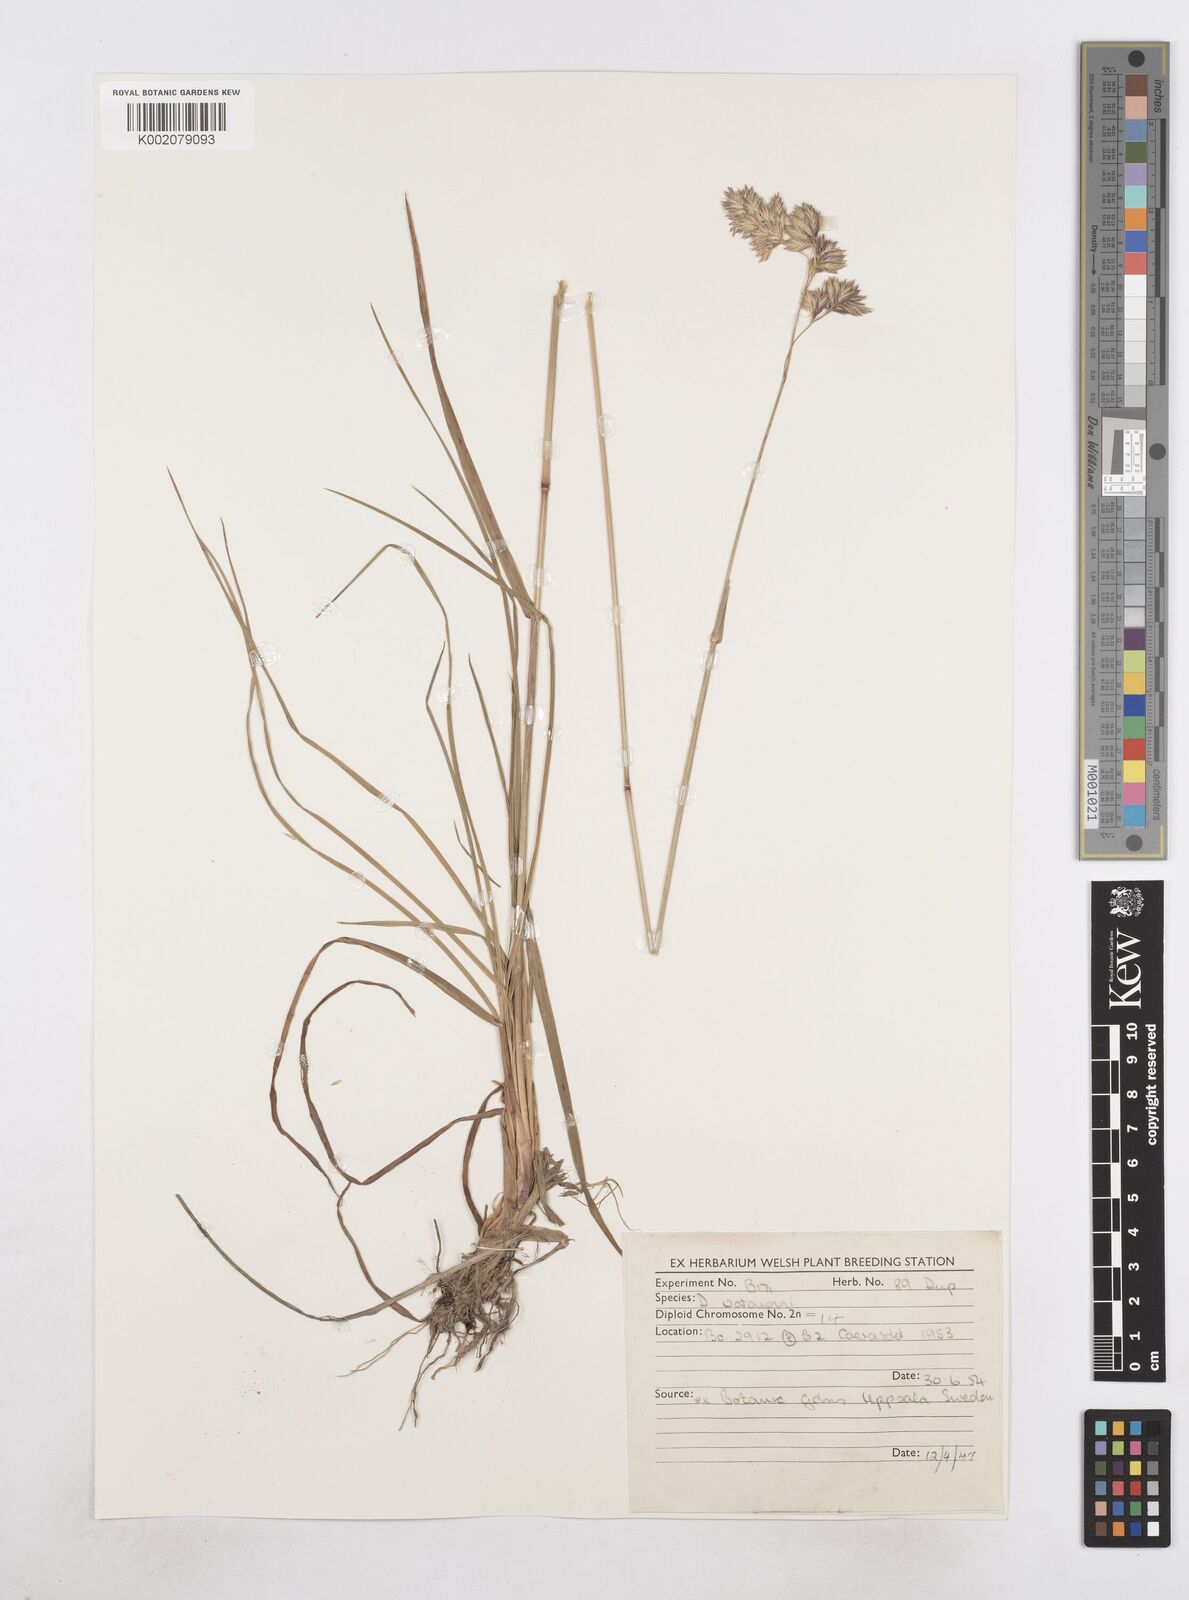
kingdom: Plantae
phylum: Tracheophyta
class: Liliopsida
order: Poales
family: Poaceae
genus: Dactylis
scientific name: Dactylis glomerata
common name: Orchardgrass
